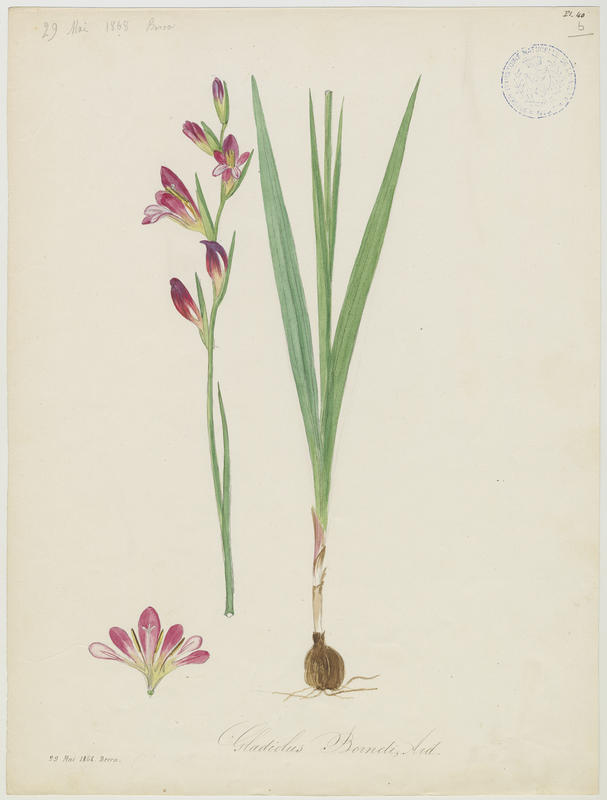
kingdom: Plantae
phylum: Tracheophyta
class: Liliopsida
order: Asparagales
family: Iridaceae
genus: Gladiolus
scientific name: Gladiolus byzantinus
